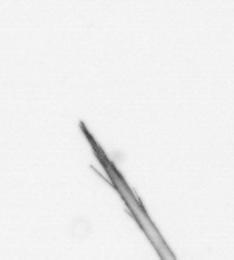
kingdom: Chromista
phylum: Ochrophyta
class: Bacillariophyceae
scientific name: Bacillariophyceae
